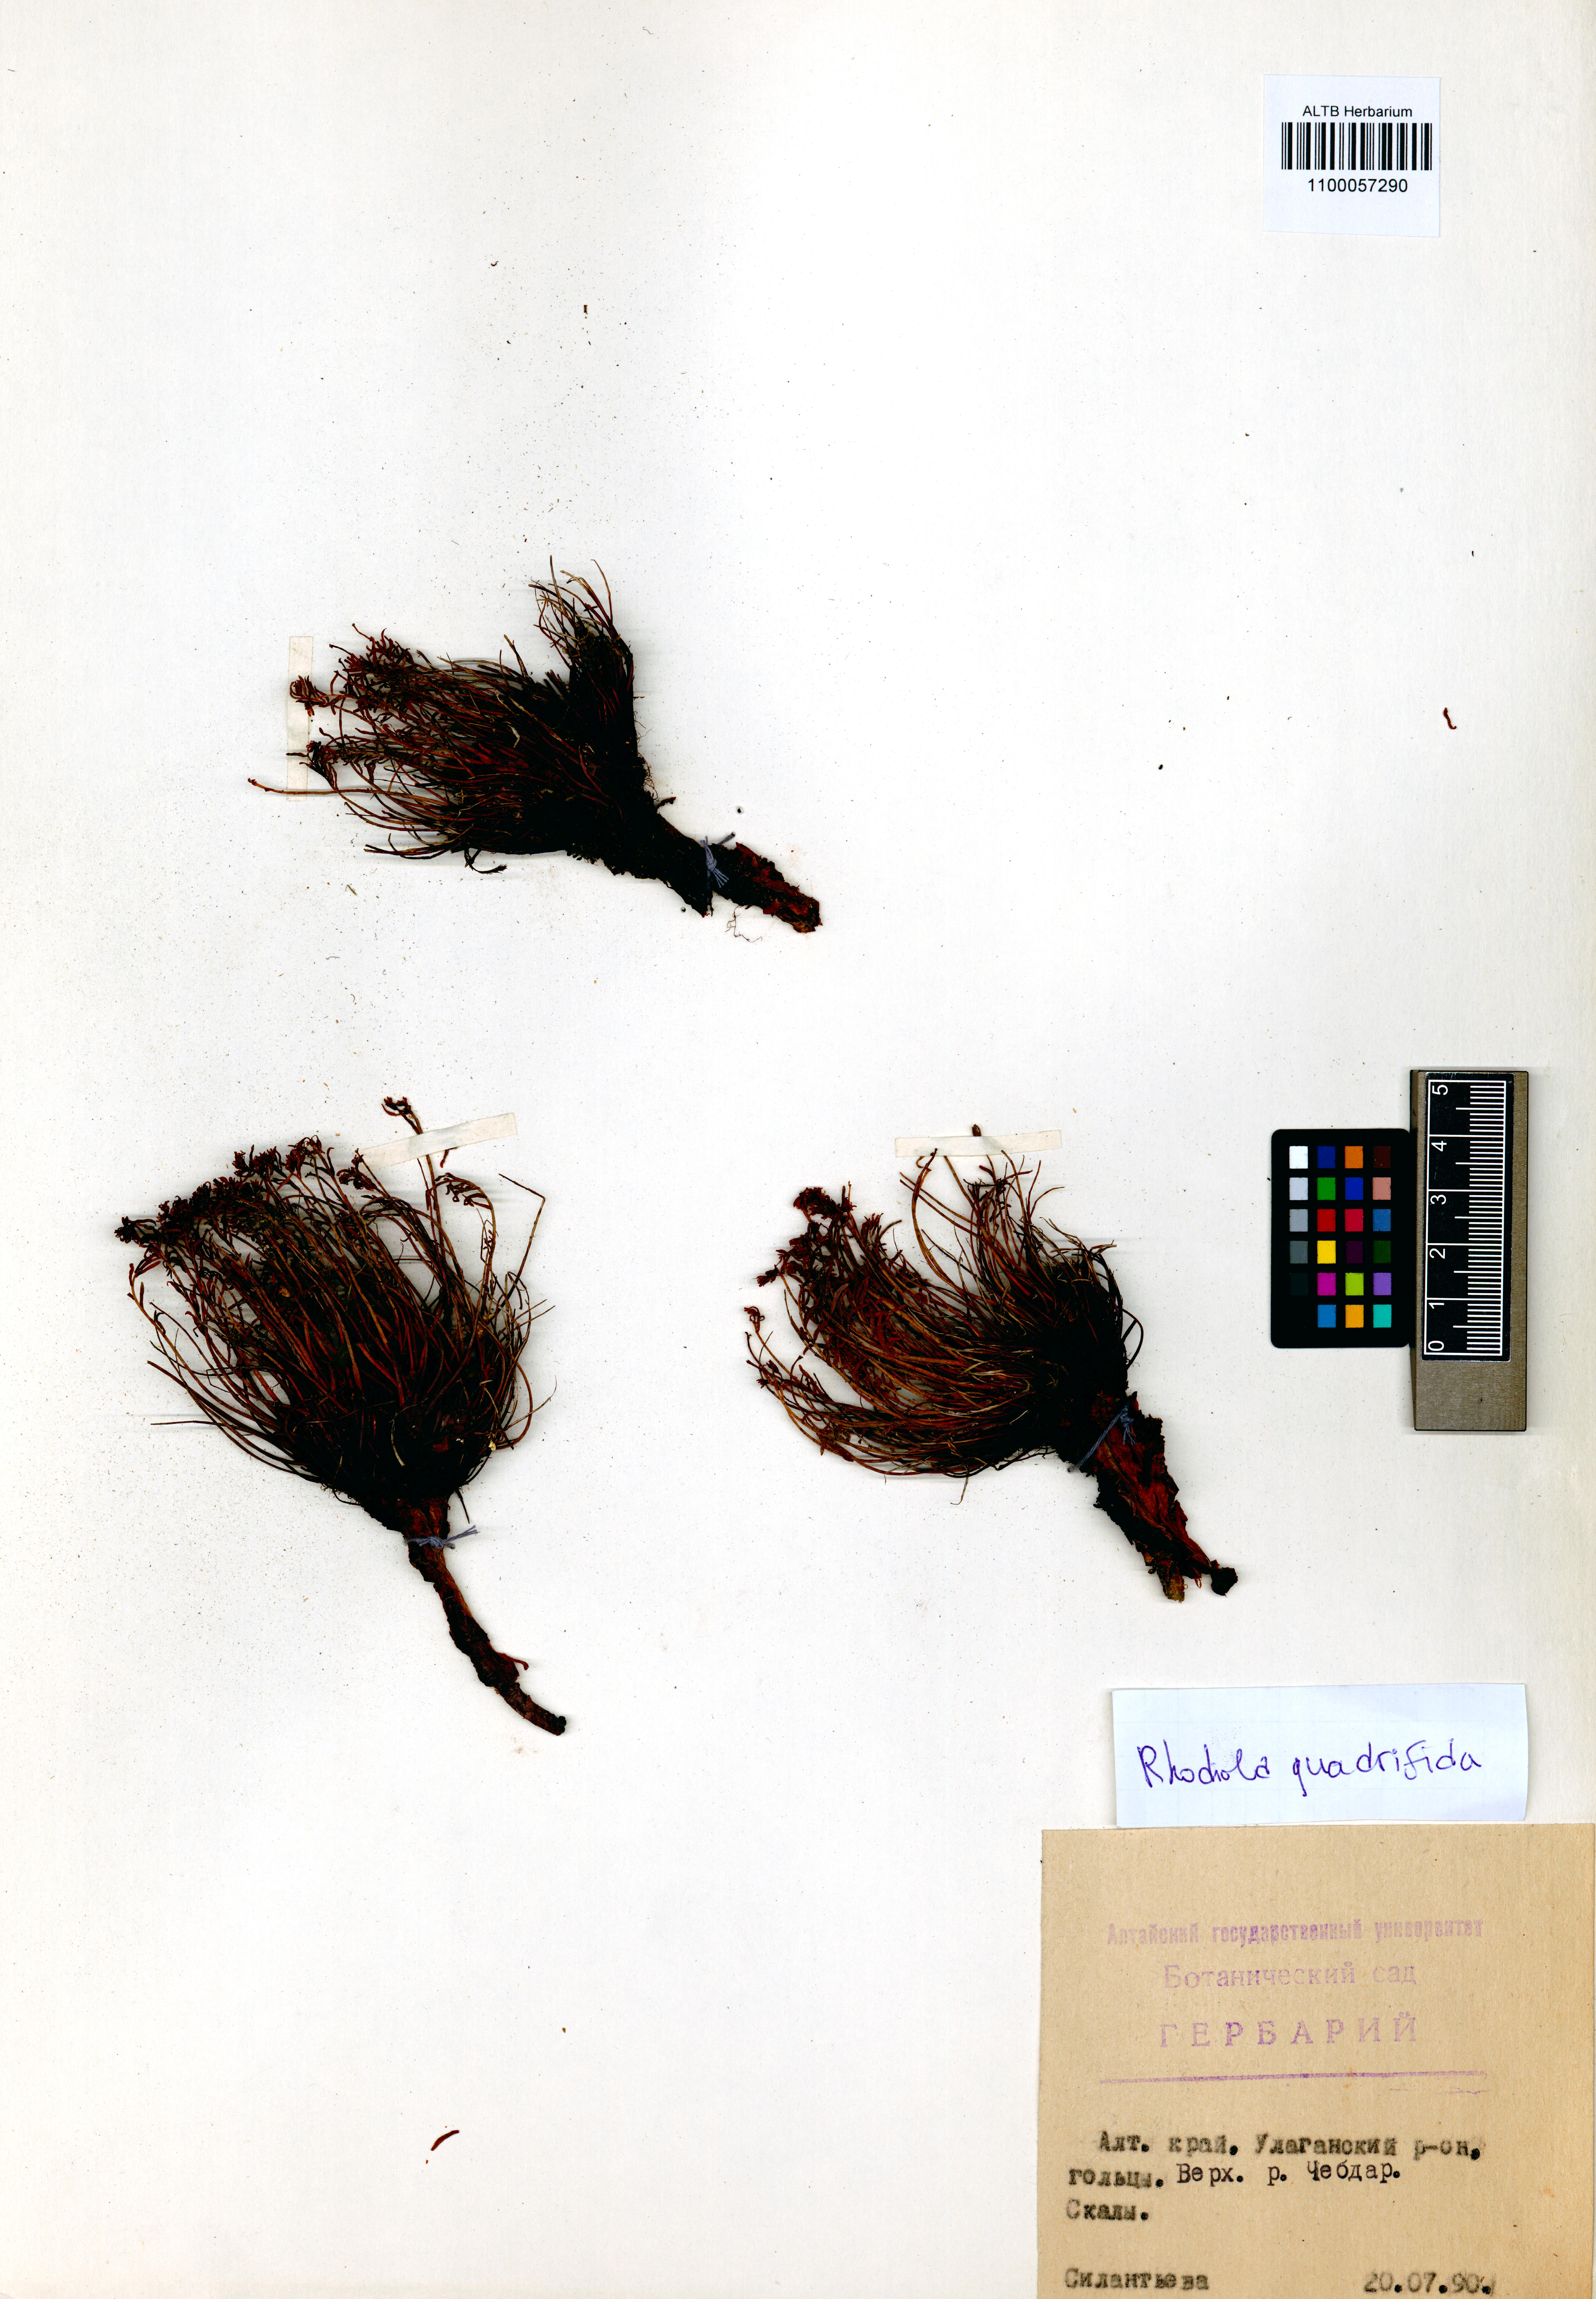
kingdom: Plantae
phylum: Tracheophyta
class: Magnoliopsida
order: Saxifragales
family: Crassulaceae
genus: Rhodiola
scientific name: Rhodiola quadrifida
